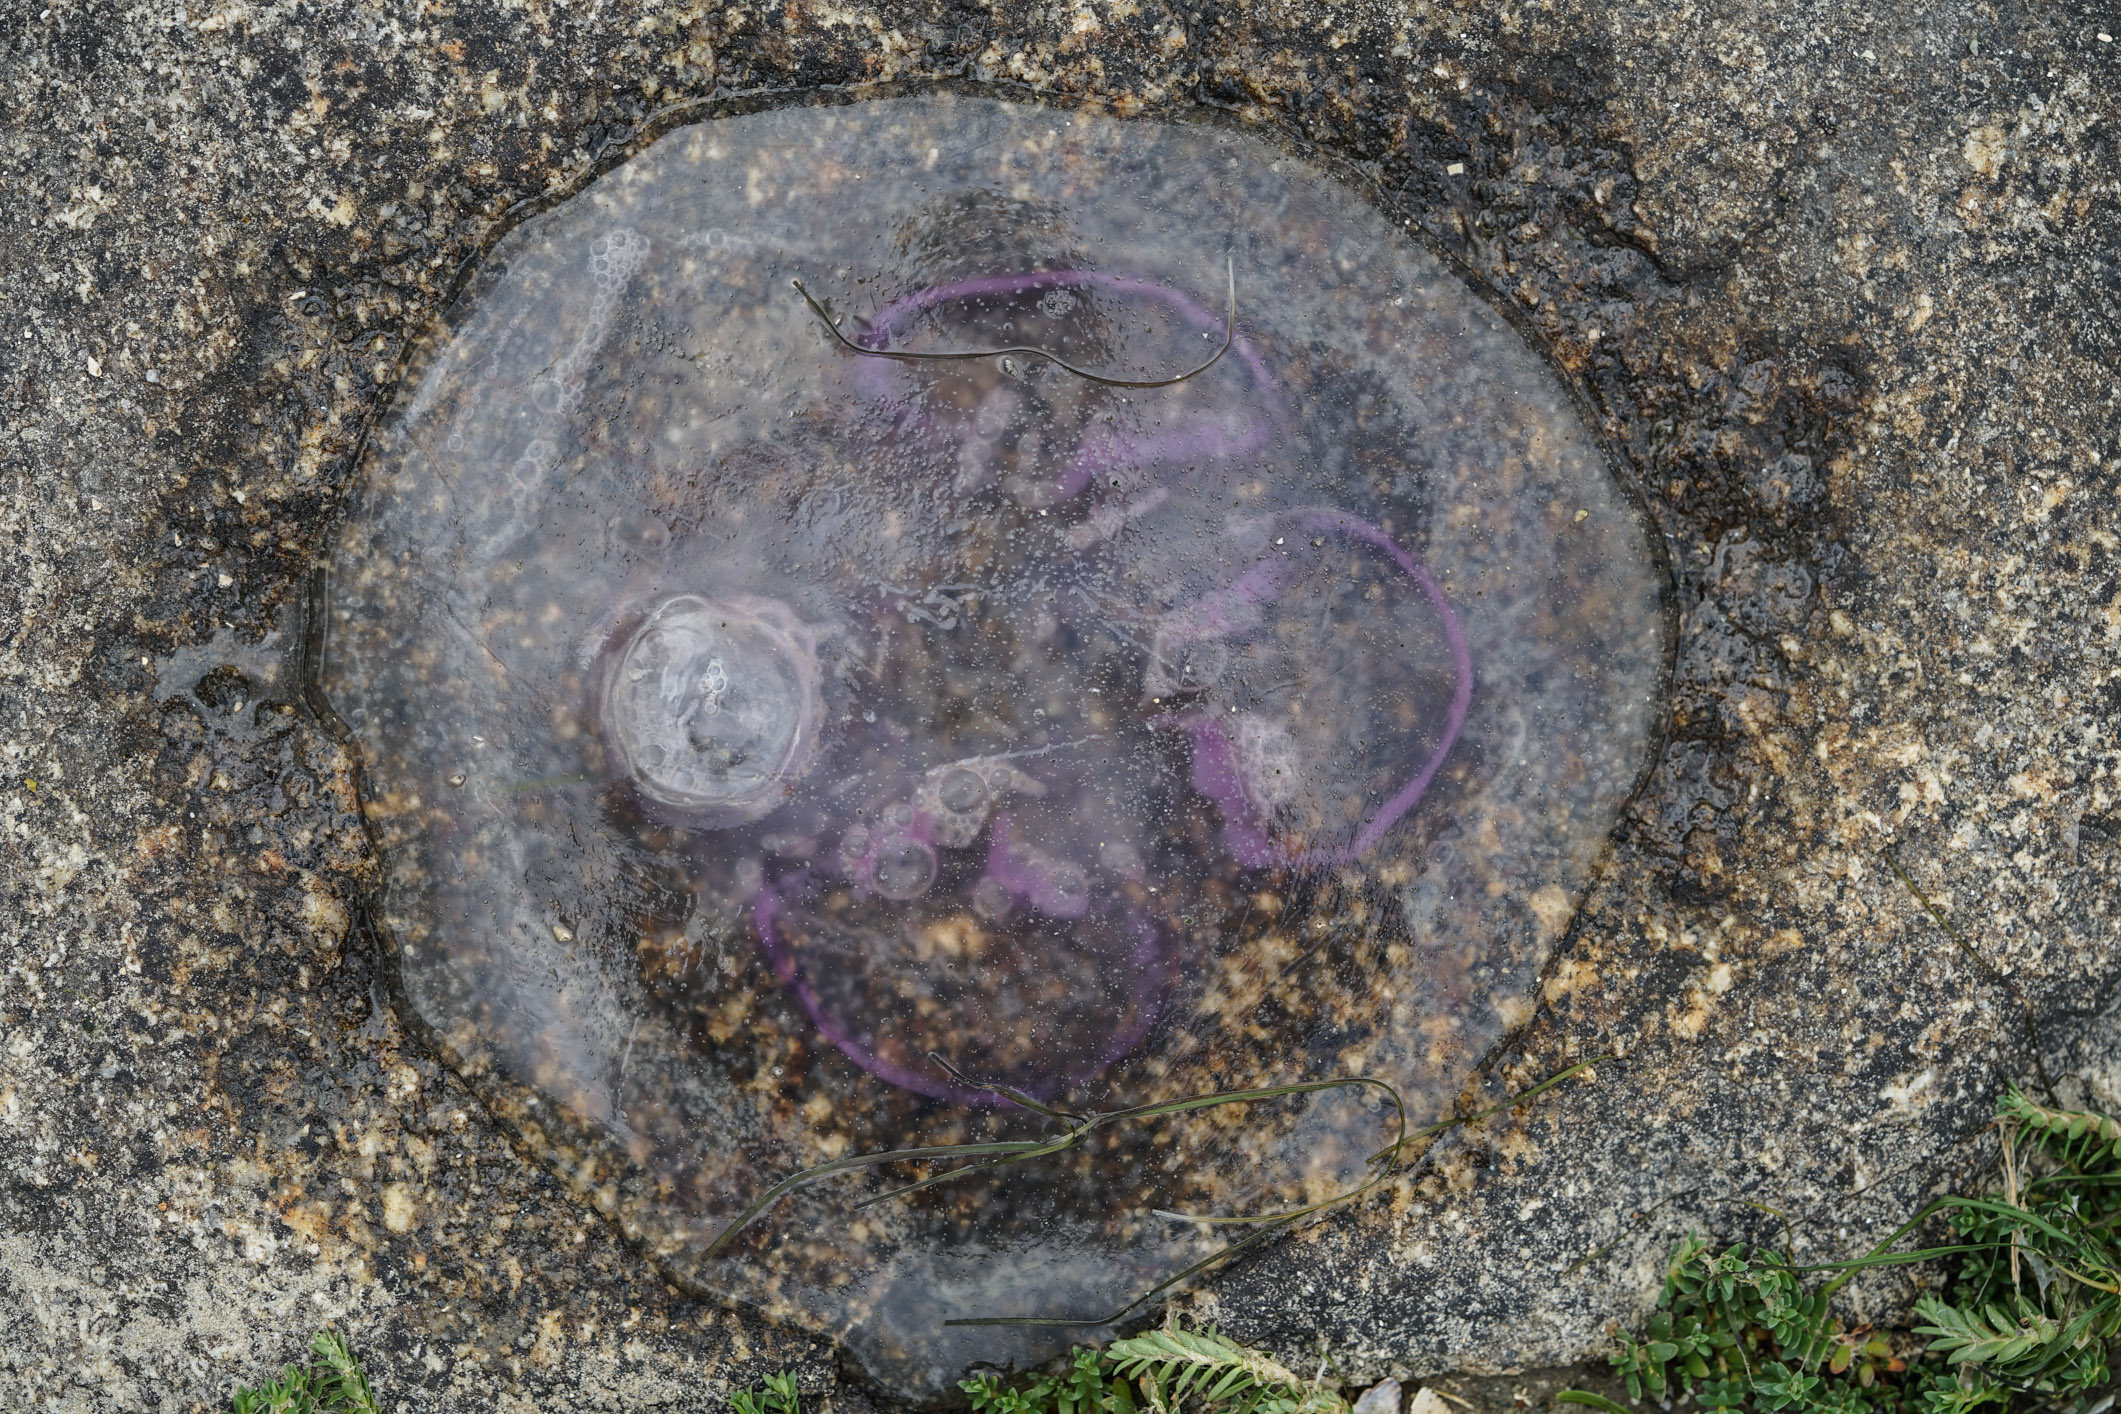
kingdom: Animalia
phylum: Cnidaria
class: Scyphozoa
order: Semaeostomeae
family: Ulmaridae
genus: Aurelia
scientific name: Aurelia aurita
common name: Moon jellyfish
